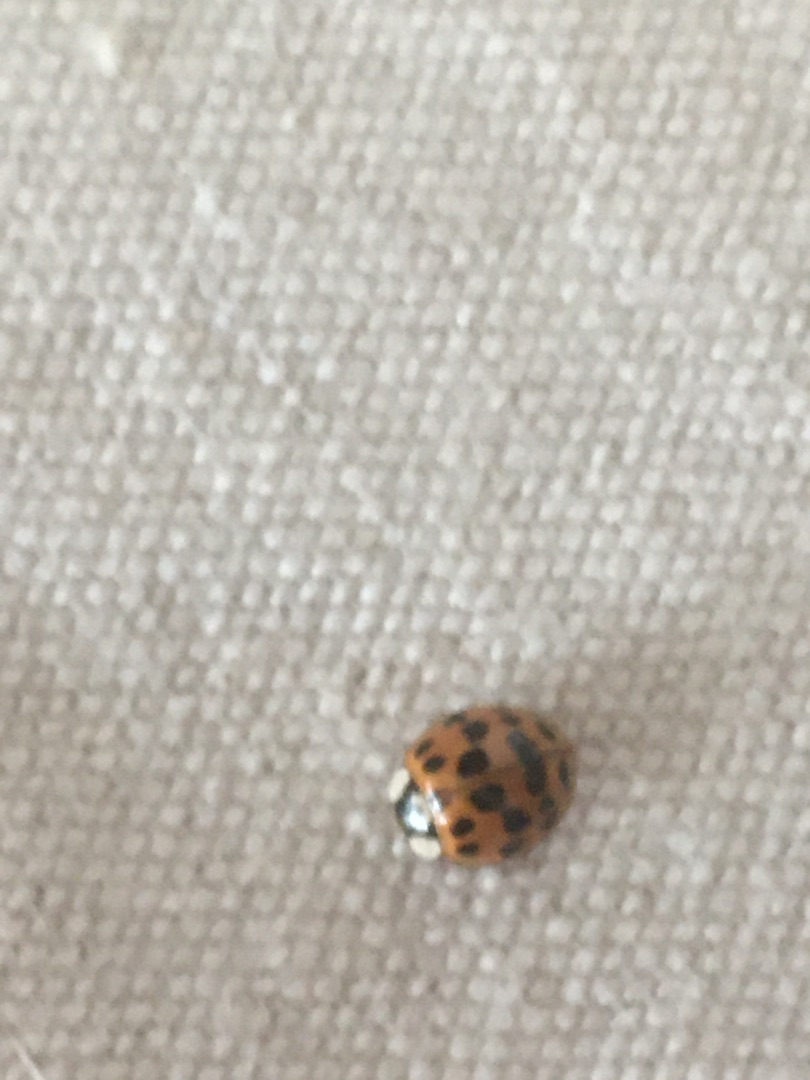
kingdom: Animalia
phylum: Arthropoda
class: Insecta
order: Coleoptera
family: Coccinellidae
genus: Harmonia
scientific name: Harmonia axyridis
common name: Harlekinmariehøne
